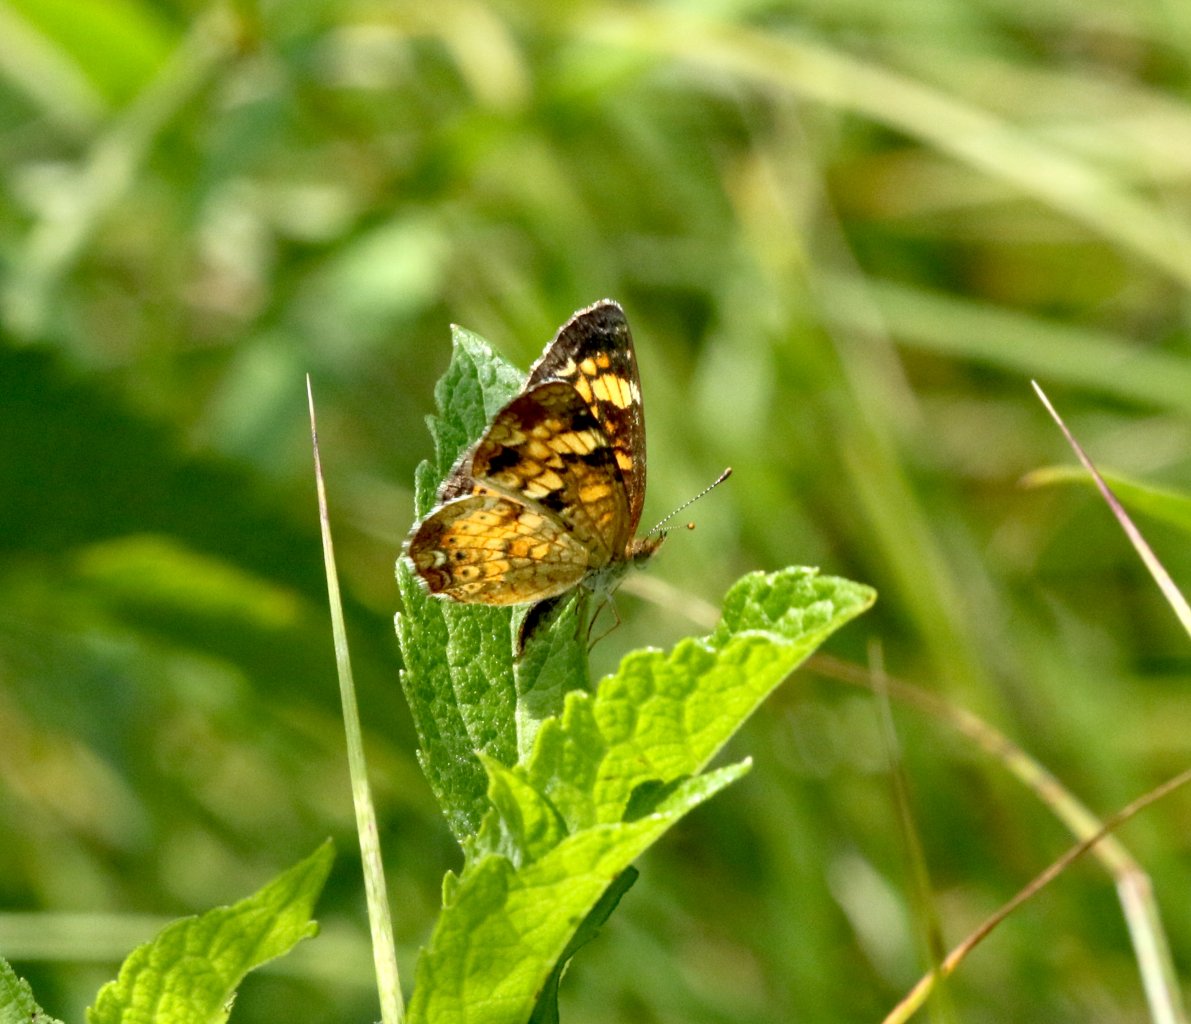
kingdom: Animalia
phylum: Arthropoda
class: Insecta
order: Lepidoptera
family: Nymphalidae
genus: Phyciodes
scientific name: Phyciodes tharos
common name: Pearl Crescent
